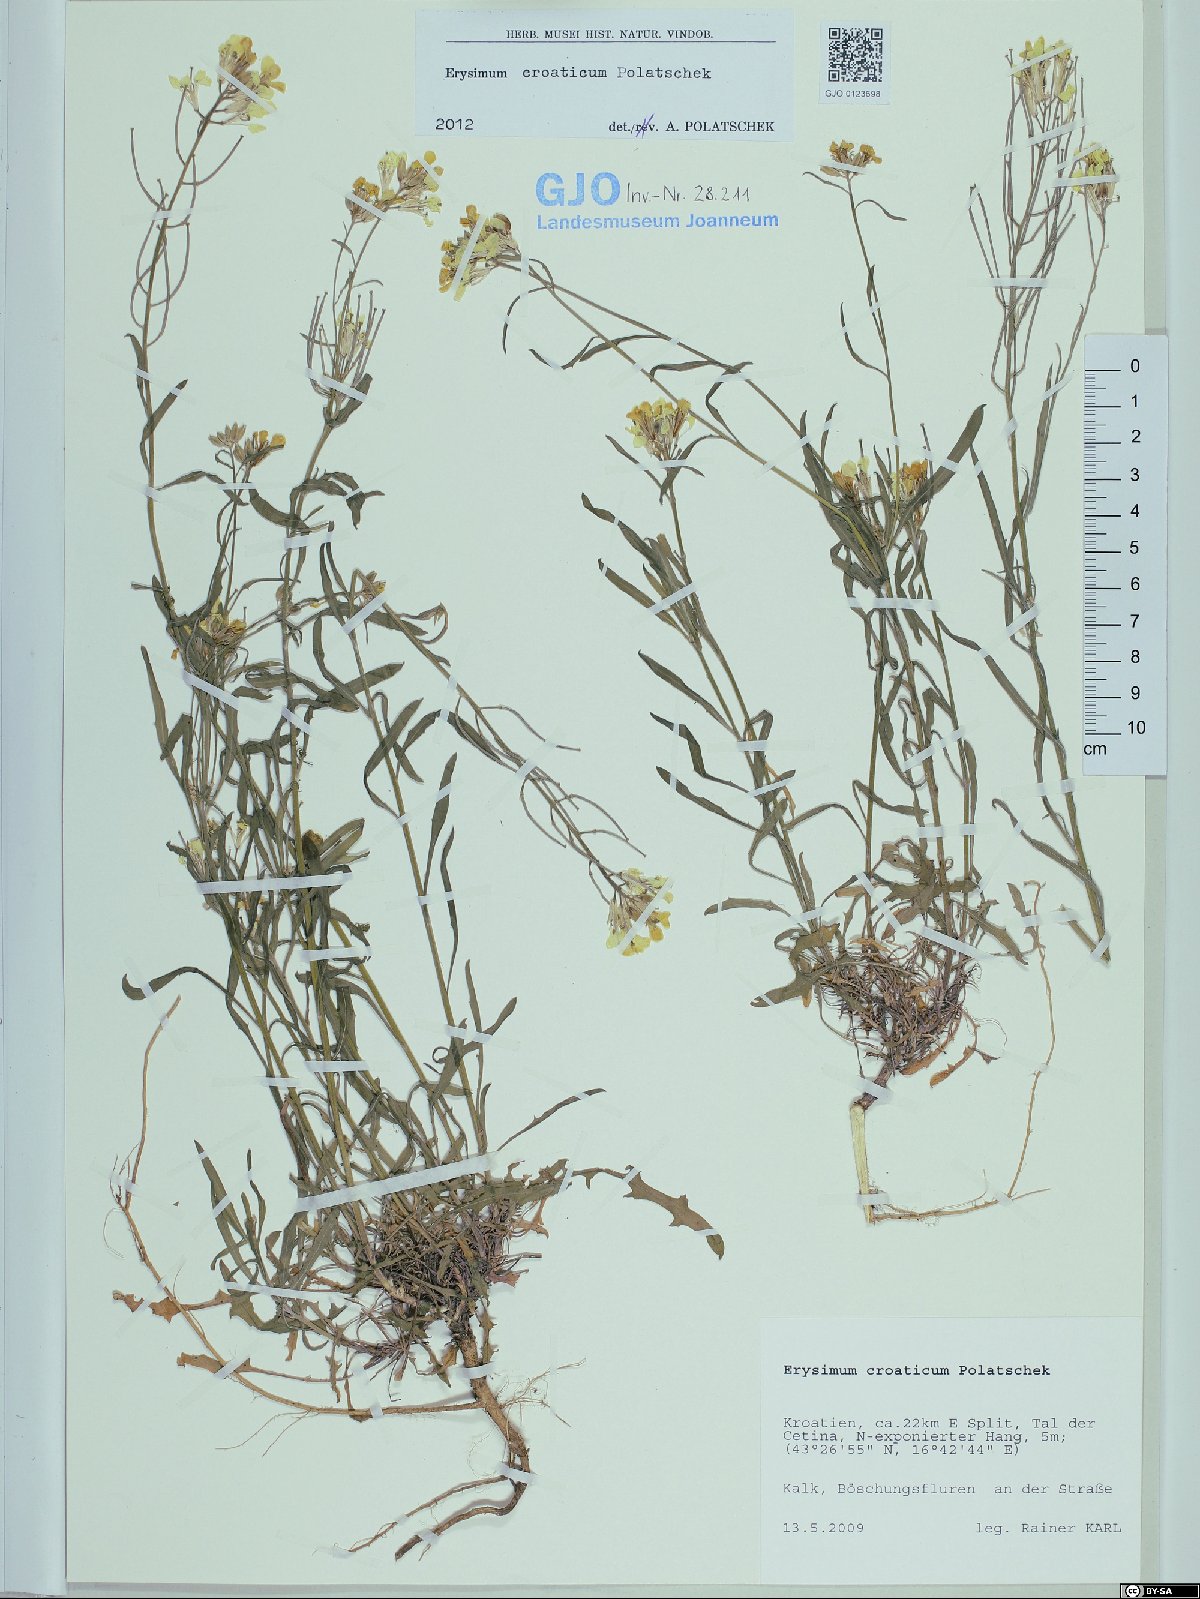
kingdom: Plantae
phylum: Tracheophyta
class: Magnoliopsida
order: Brassicales
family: Brassicaceae
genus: Erysimum
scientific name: Erysimum croaticum
